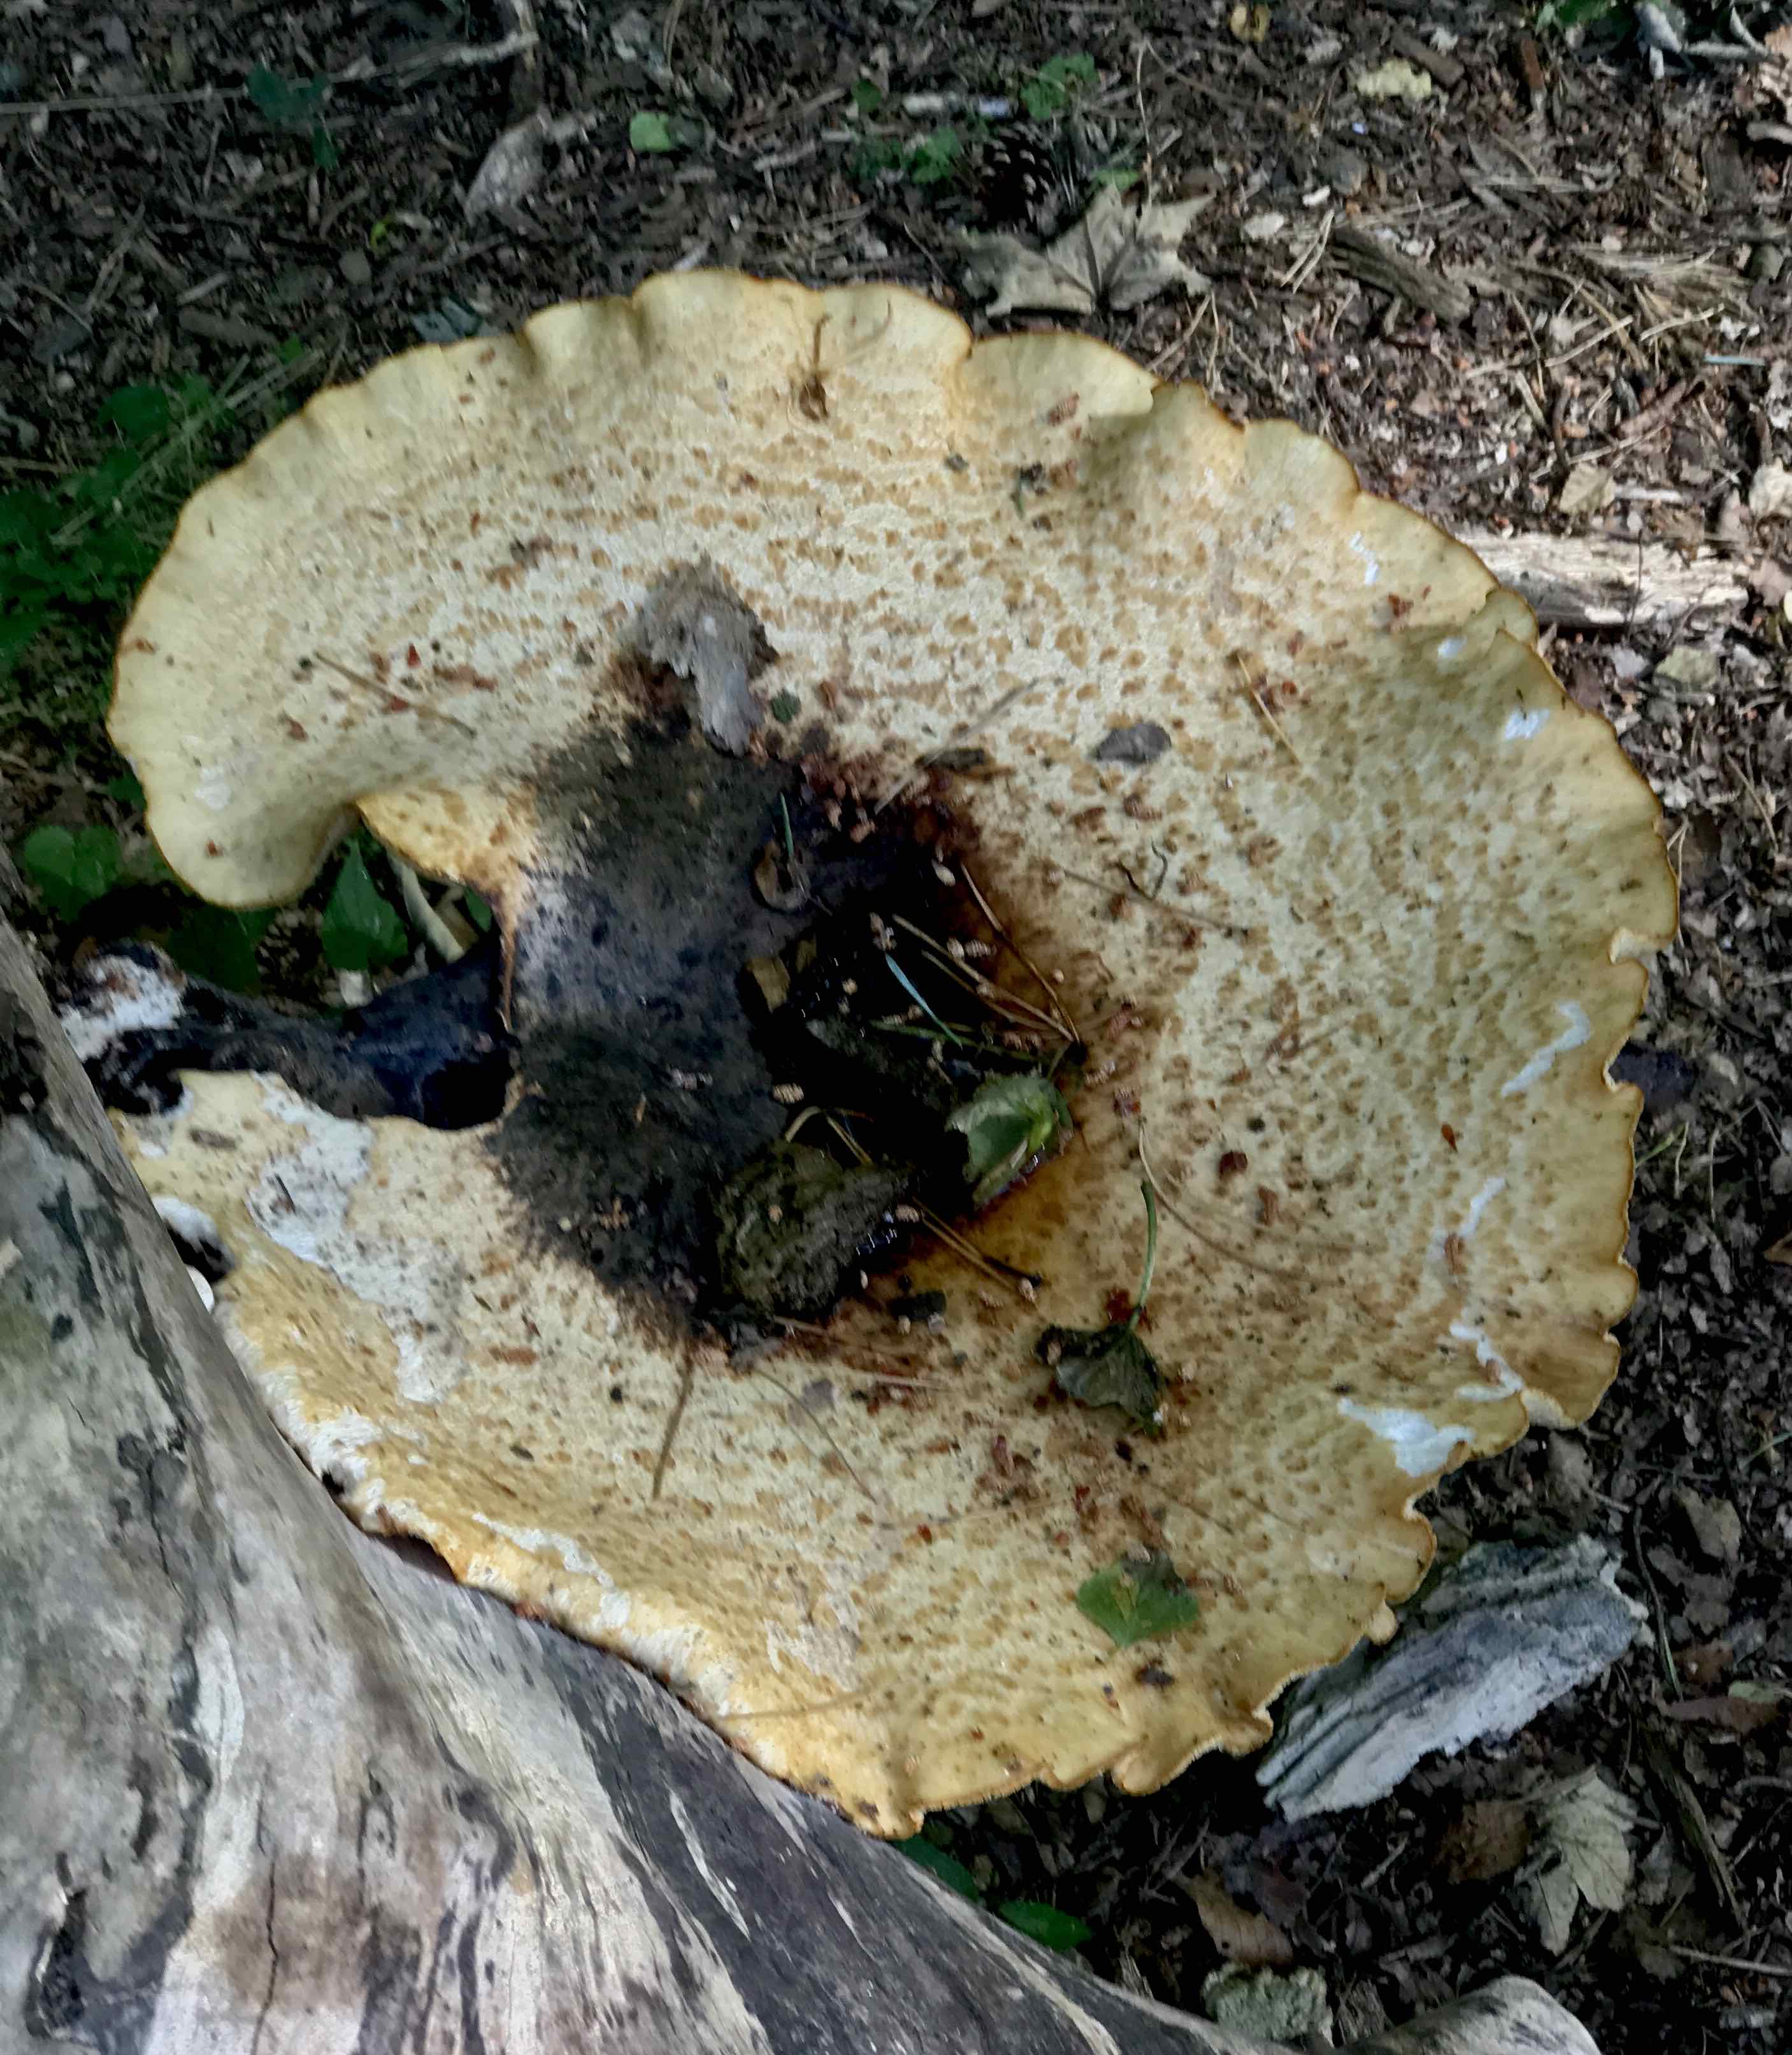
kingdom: Fungi
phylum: Basidiomycota
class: Agaricomycetes
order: Polyporales
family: Polyporaceae
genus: Cerioporus
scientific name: Cerioporus squamosus
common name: skællet stilkporesvamp
